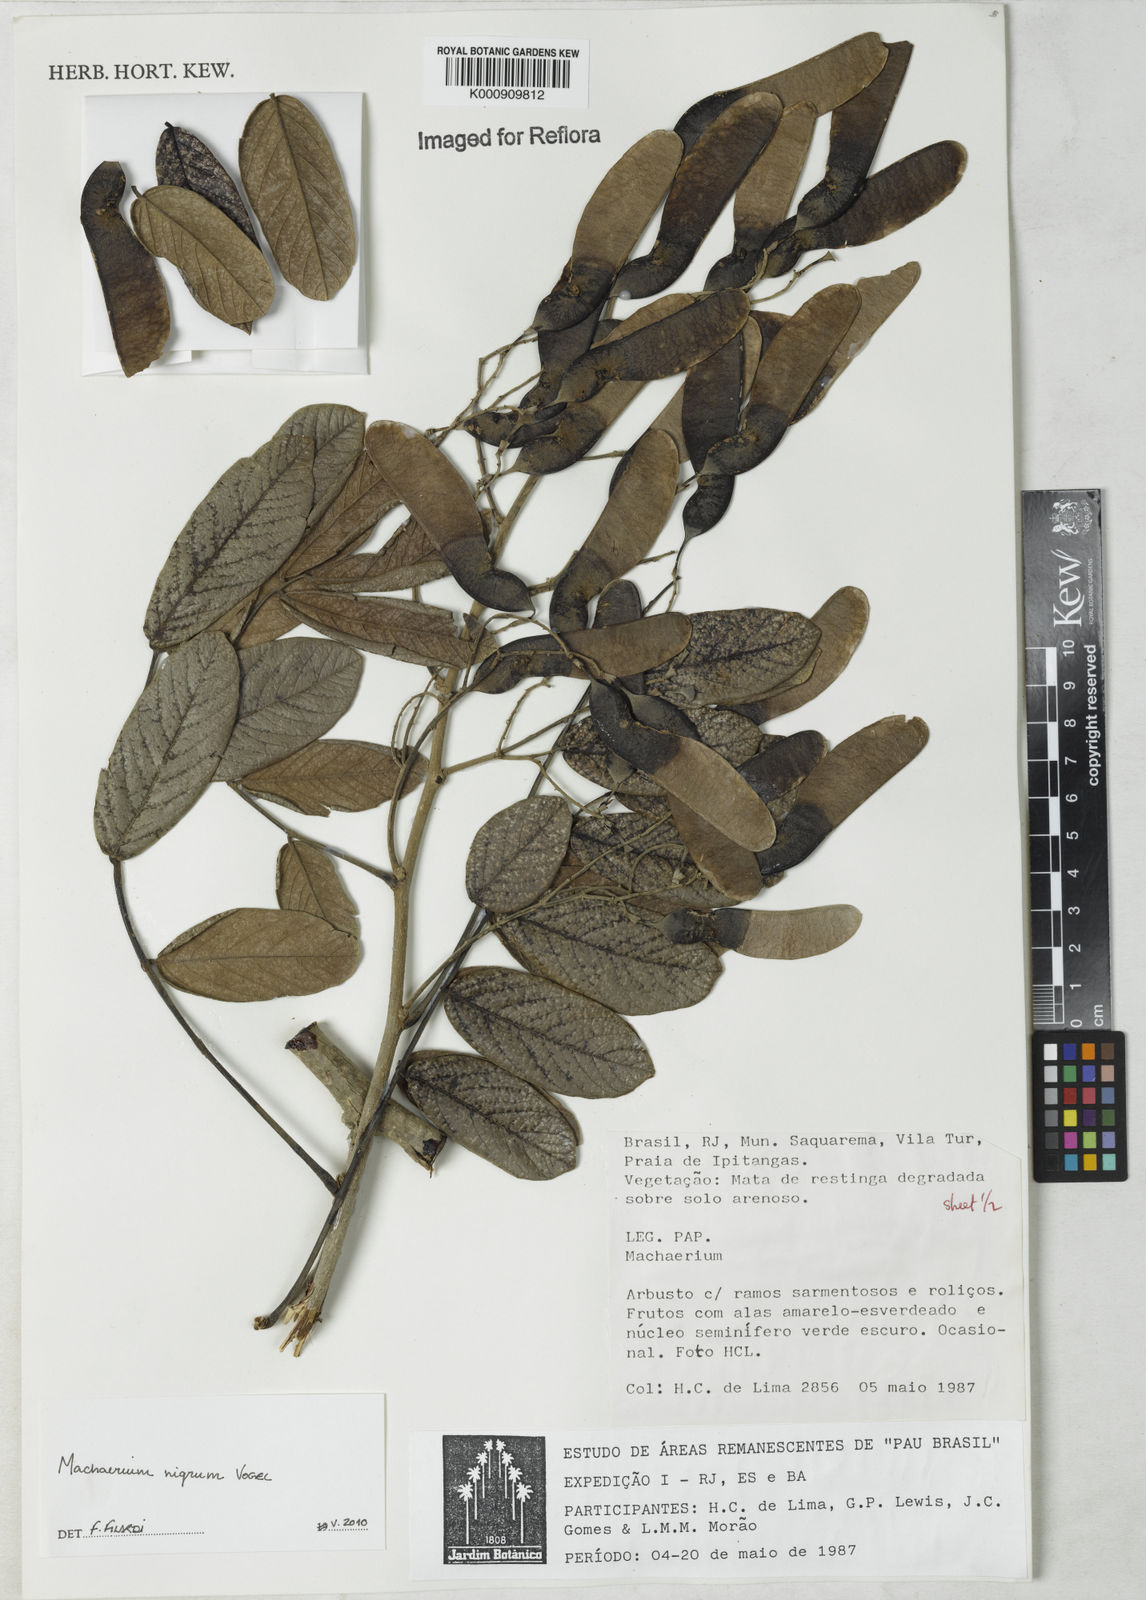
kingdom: Plantae
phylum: Tracheophyta
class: Magnoliopsida
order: Fabales
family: Fabaceae
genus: Machaerium
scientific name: Machaerium nigrum
